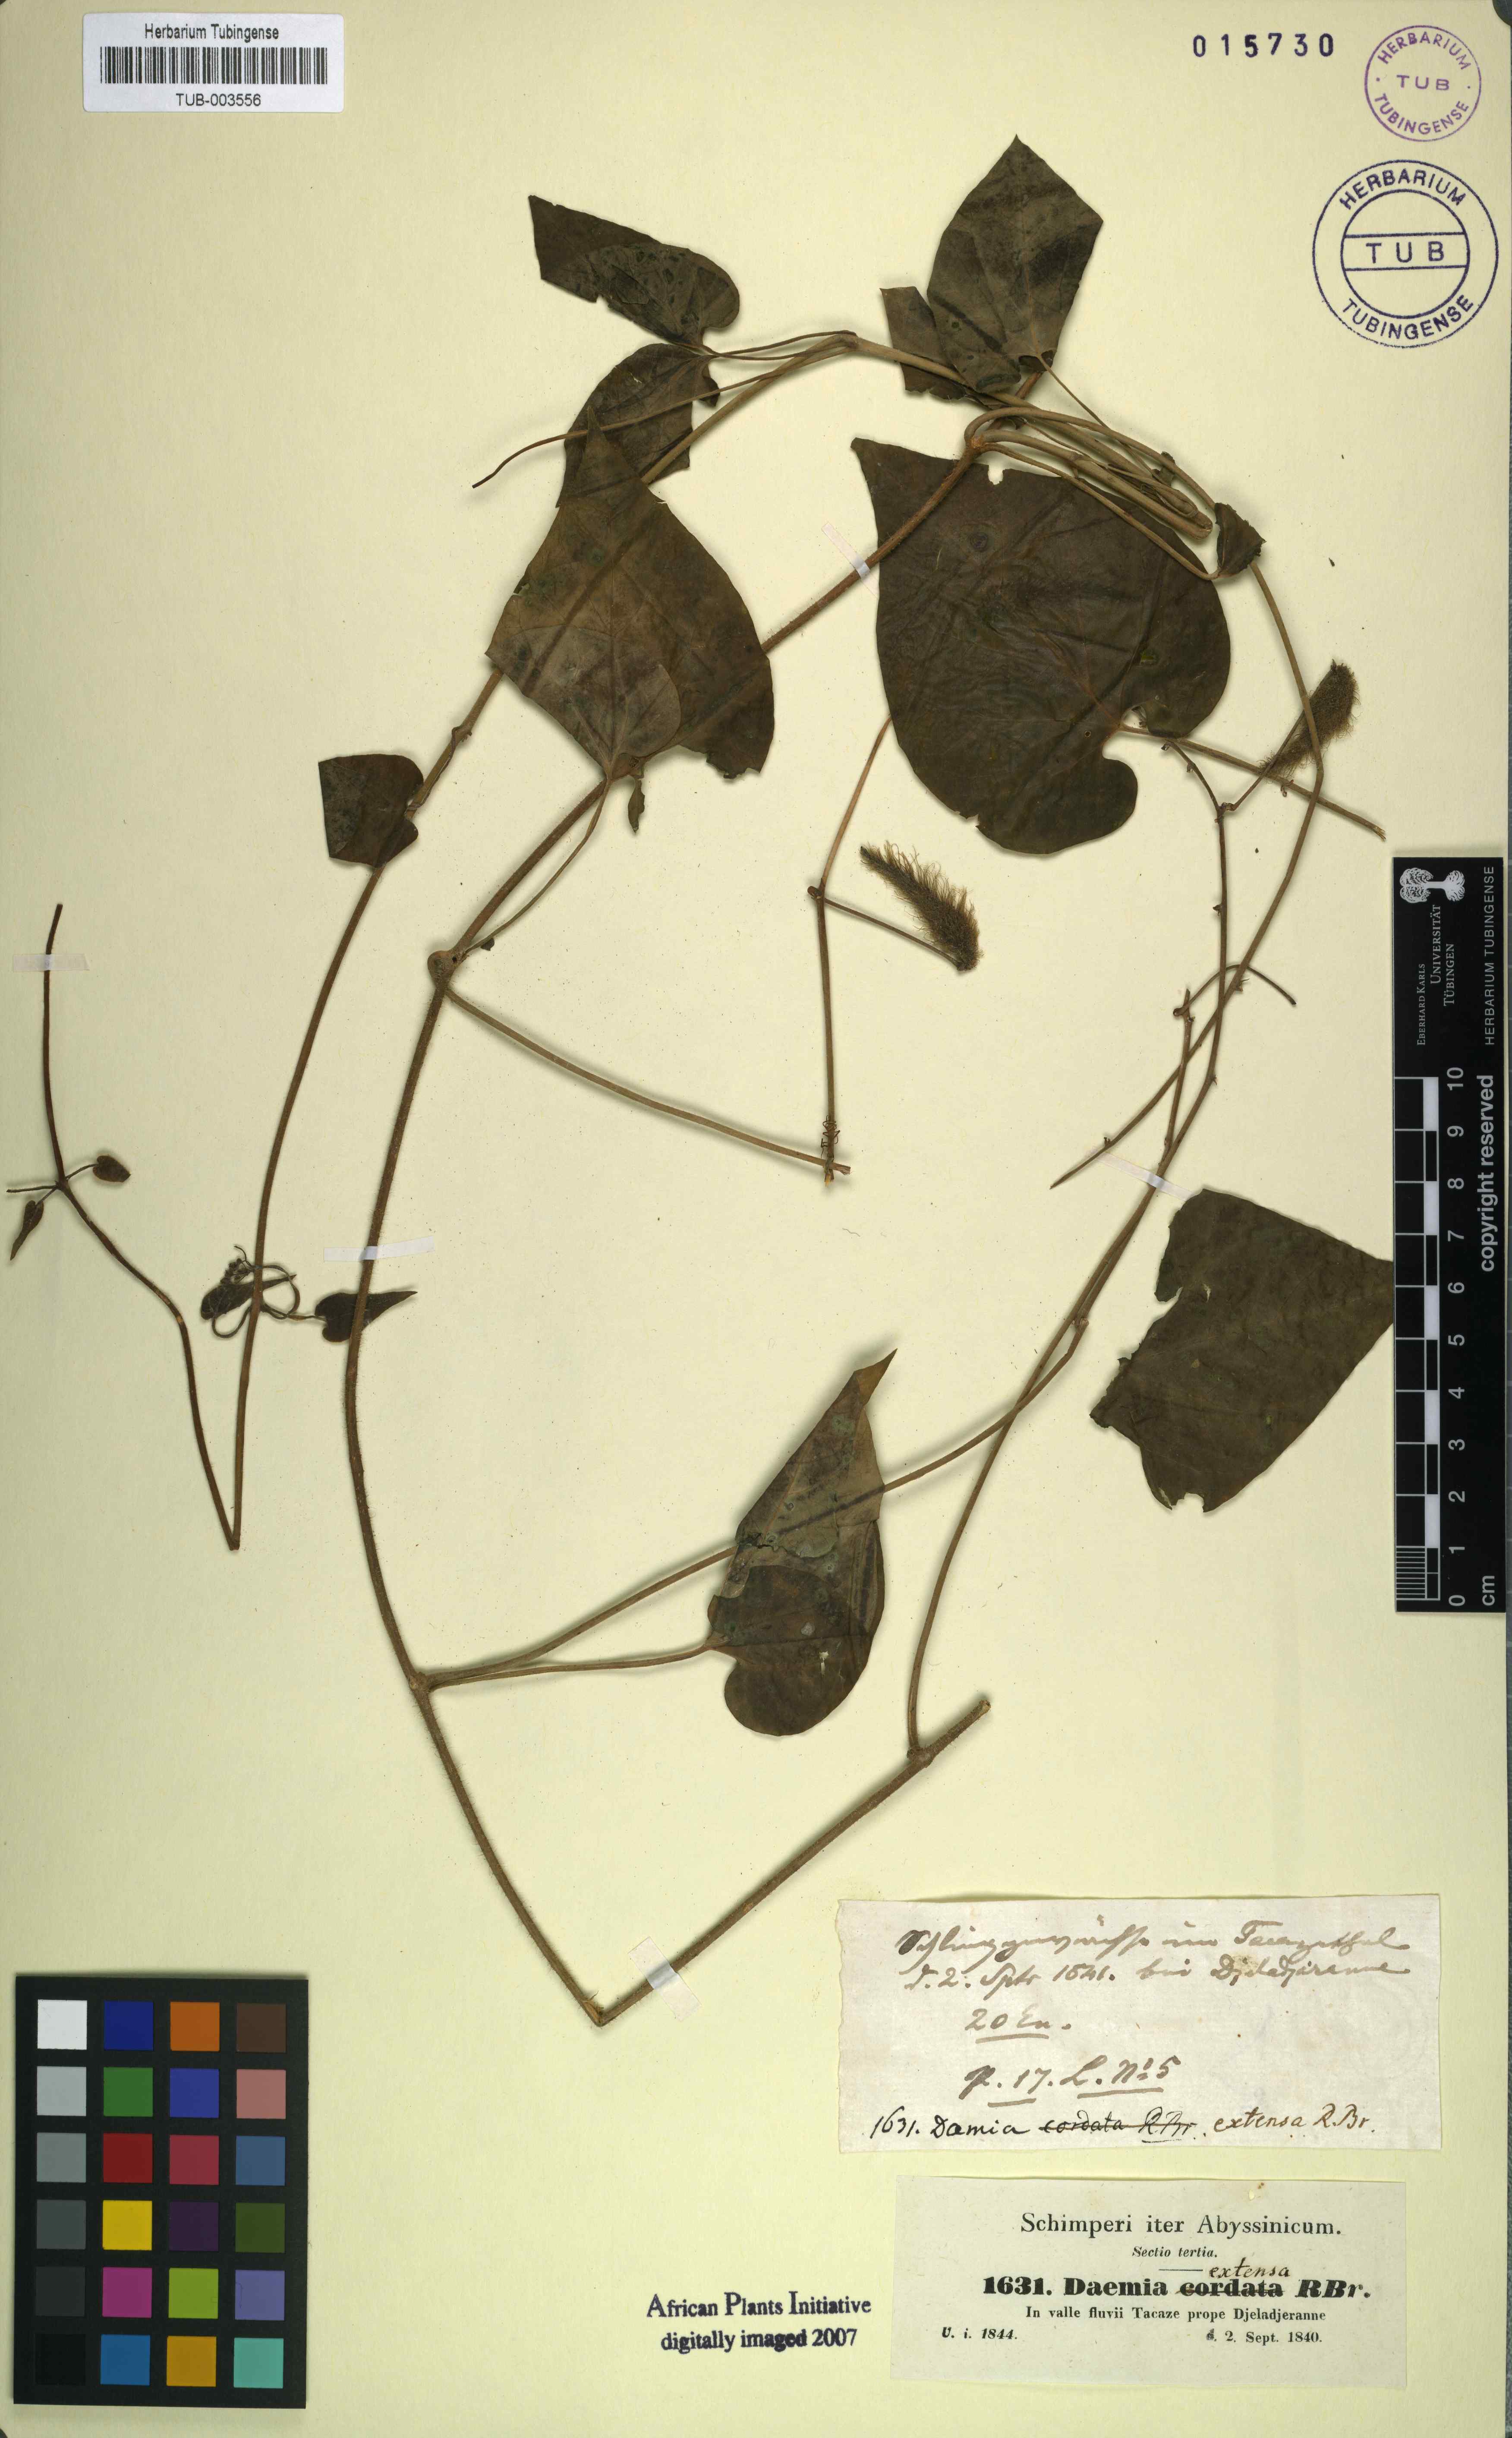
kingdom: Plantae
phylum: Tracheophyta
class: Magnoliopsida
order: Gentianales
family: Apocynaceae
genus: Pergularia
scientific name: Pergularia daemia
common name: Trellis-vine
